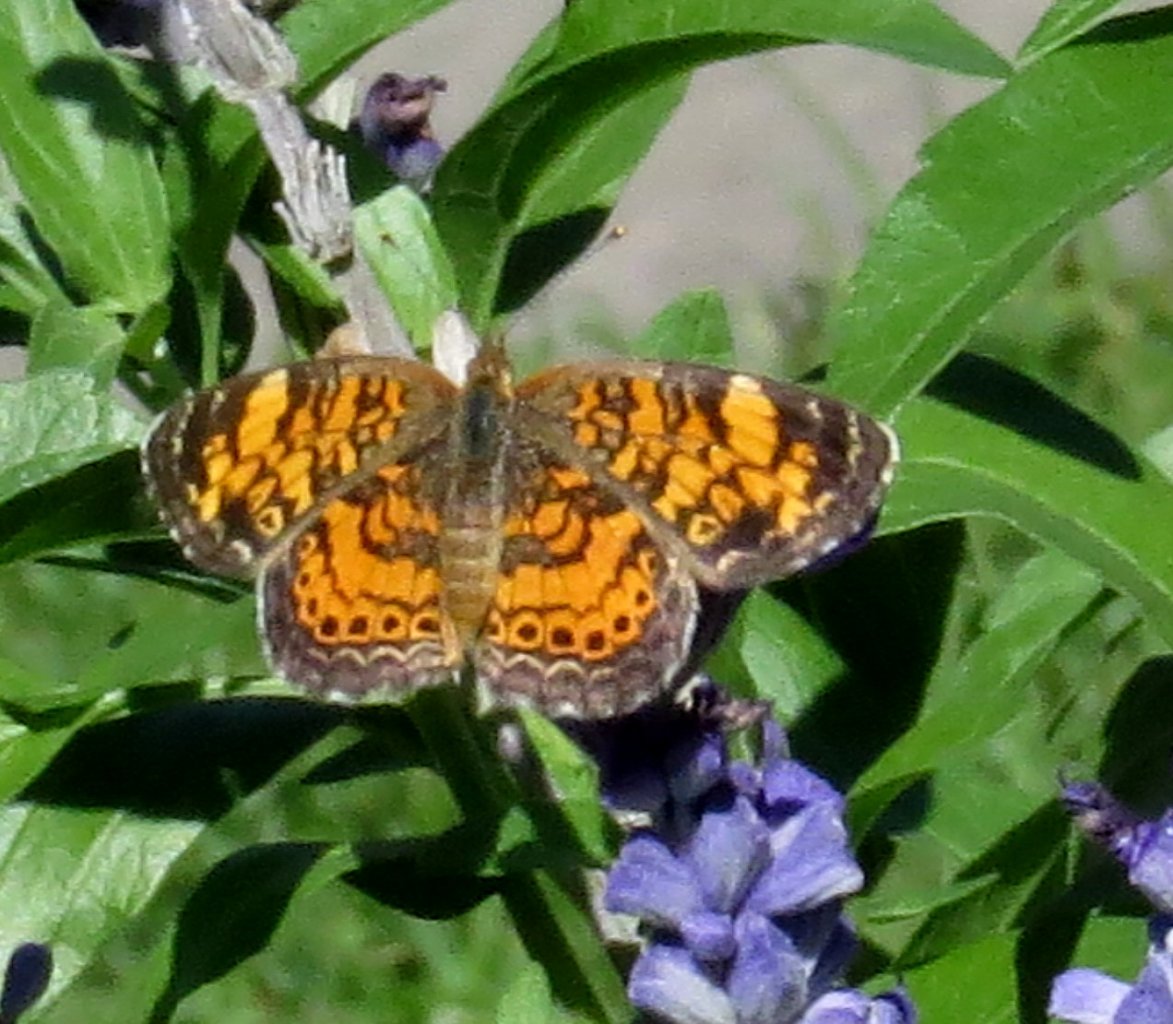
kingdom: Animalia
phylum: Arthropoda
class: Insecta
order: Lepidoptera
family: Nymphalidae
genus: Phyciodes
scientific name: Phyciodes tharos
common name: Pearl Crescent
